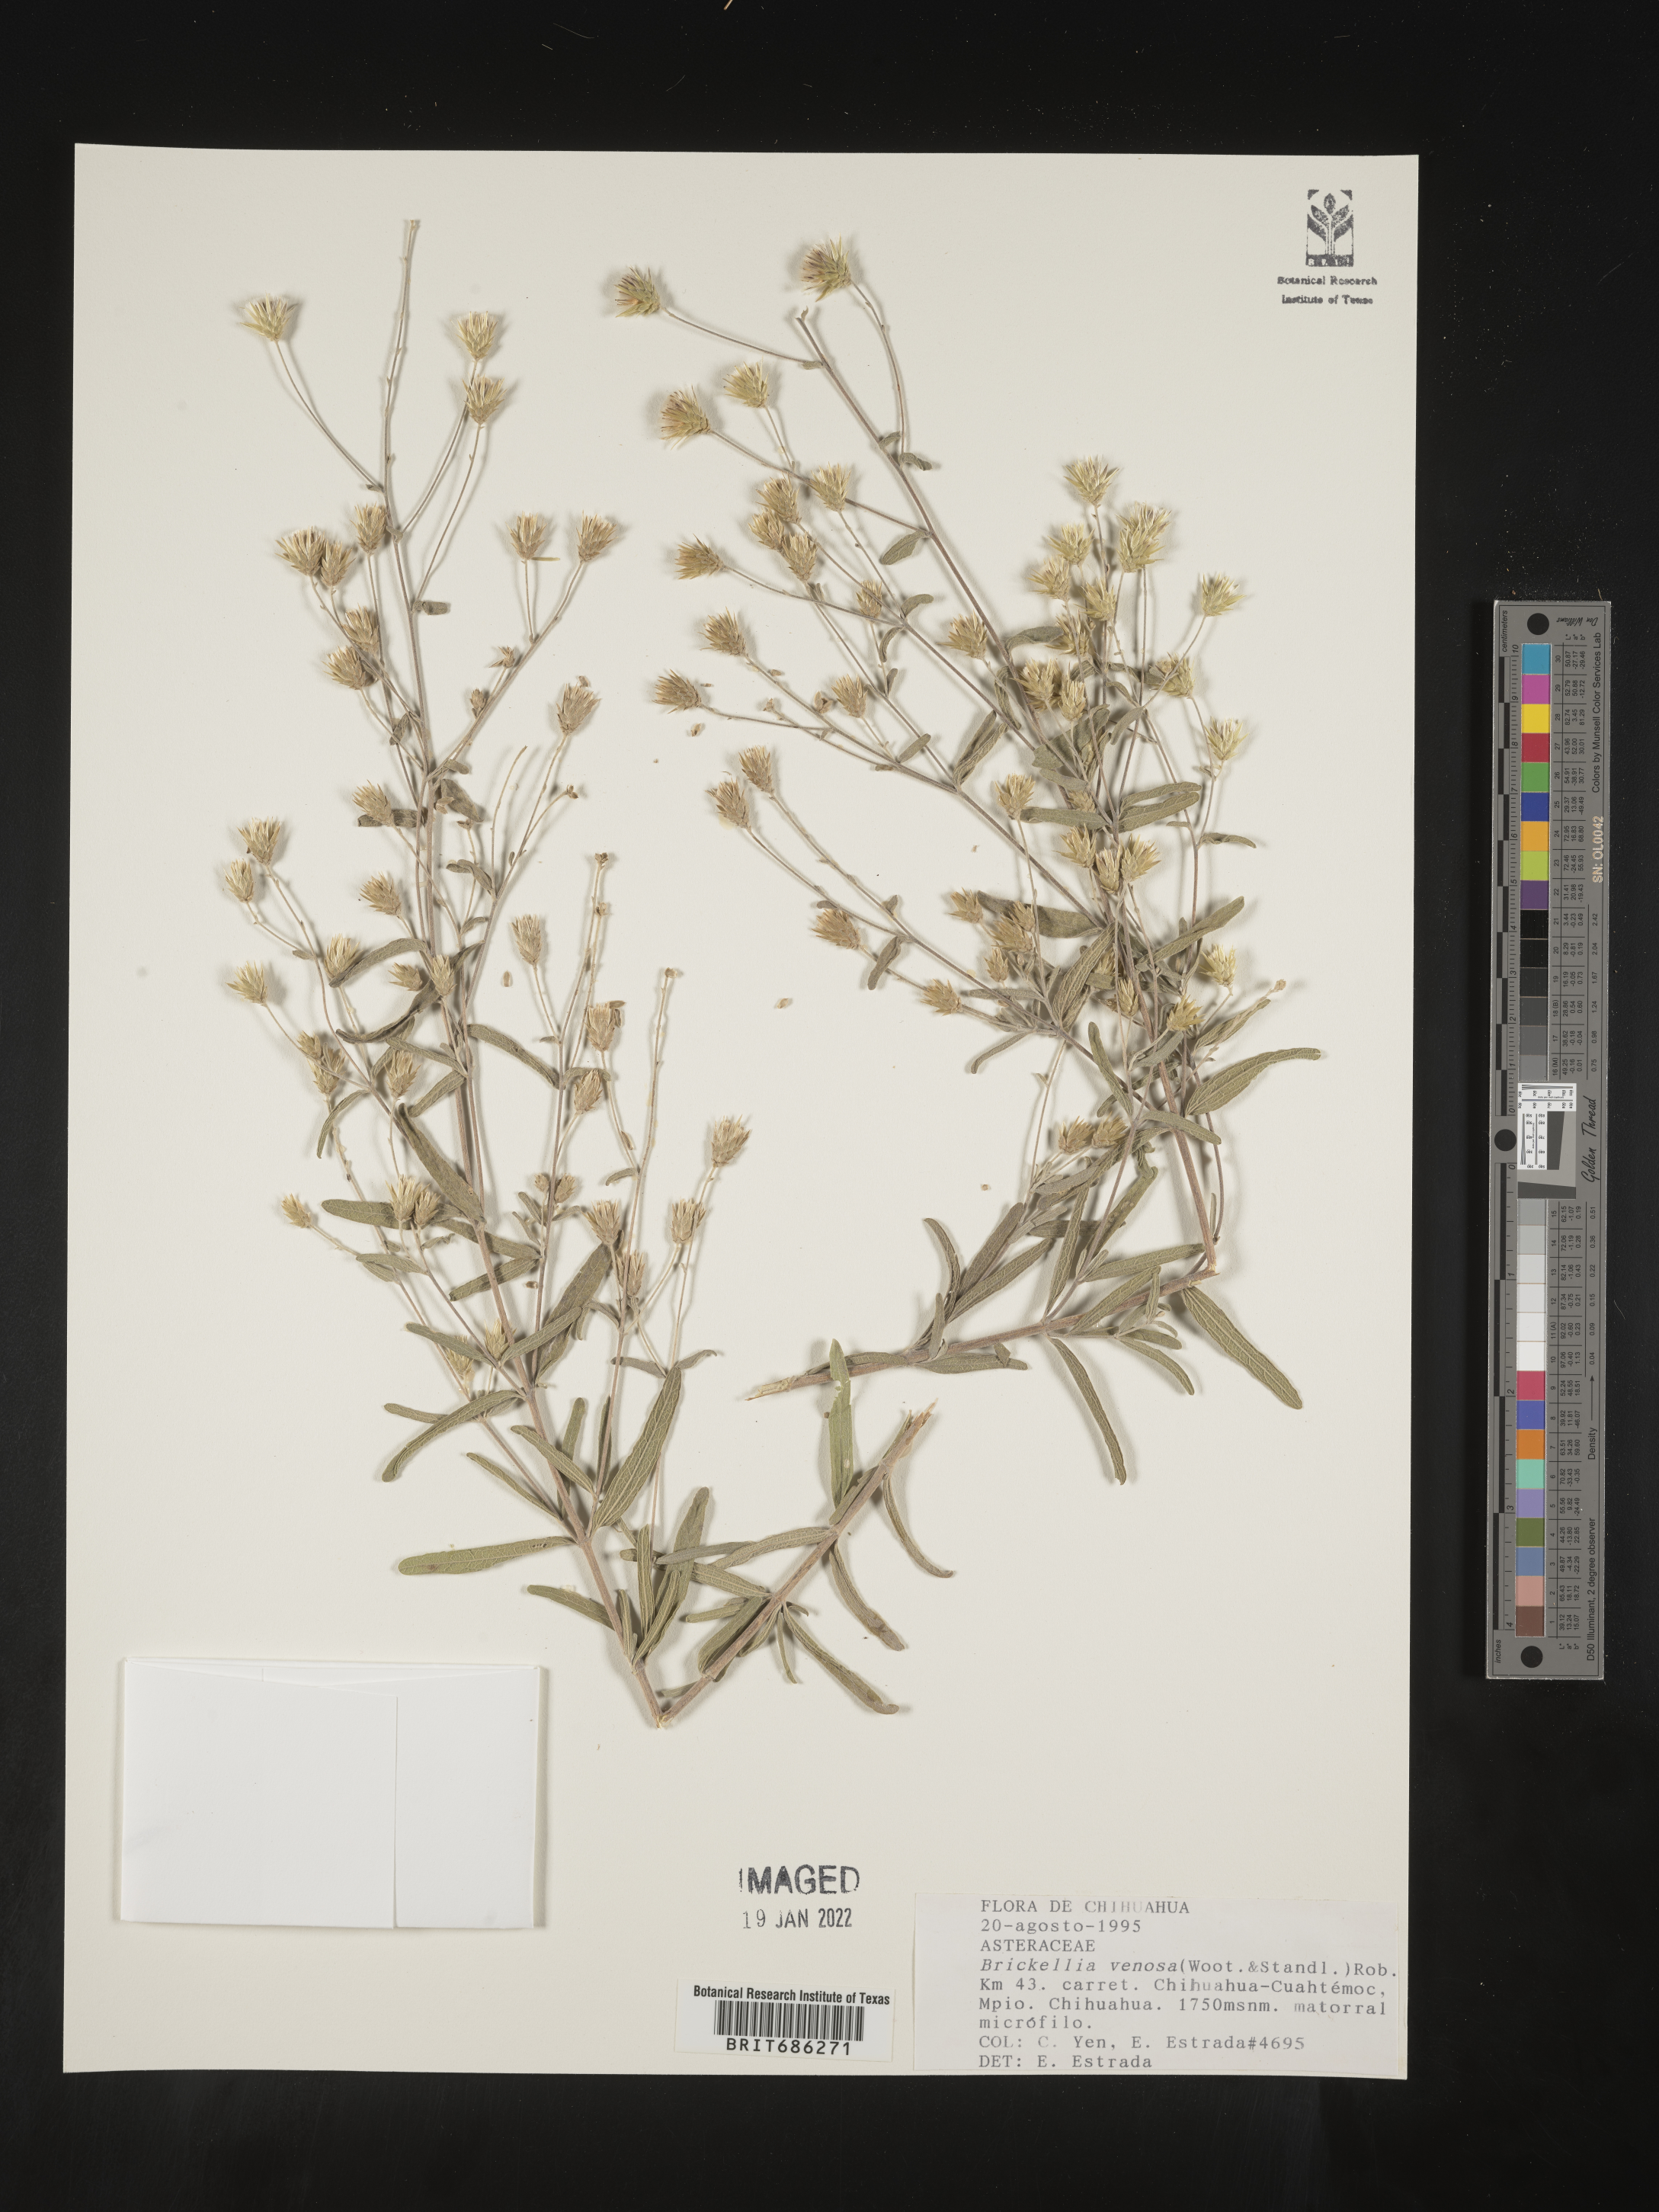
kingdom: Plantae
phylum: Tracheophyta
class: Magnoliopsida
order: Asterales
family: Asteraceae
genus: Brickellia
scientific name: Brickellia venosa
